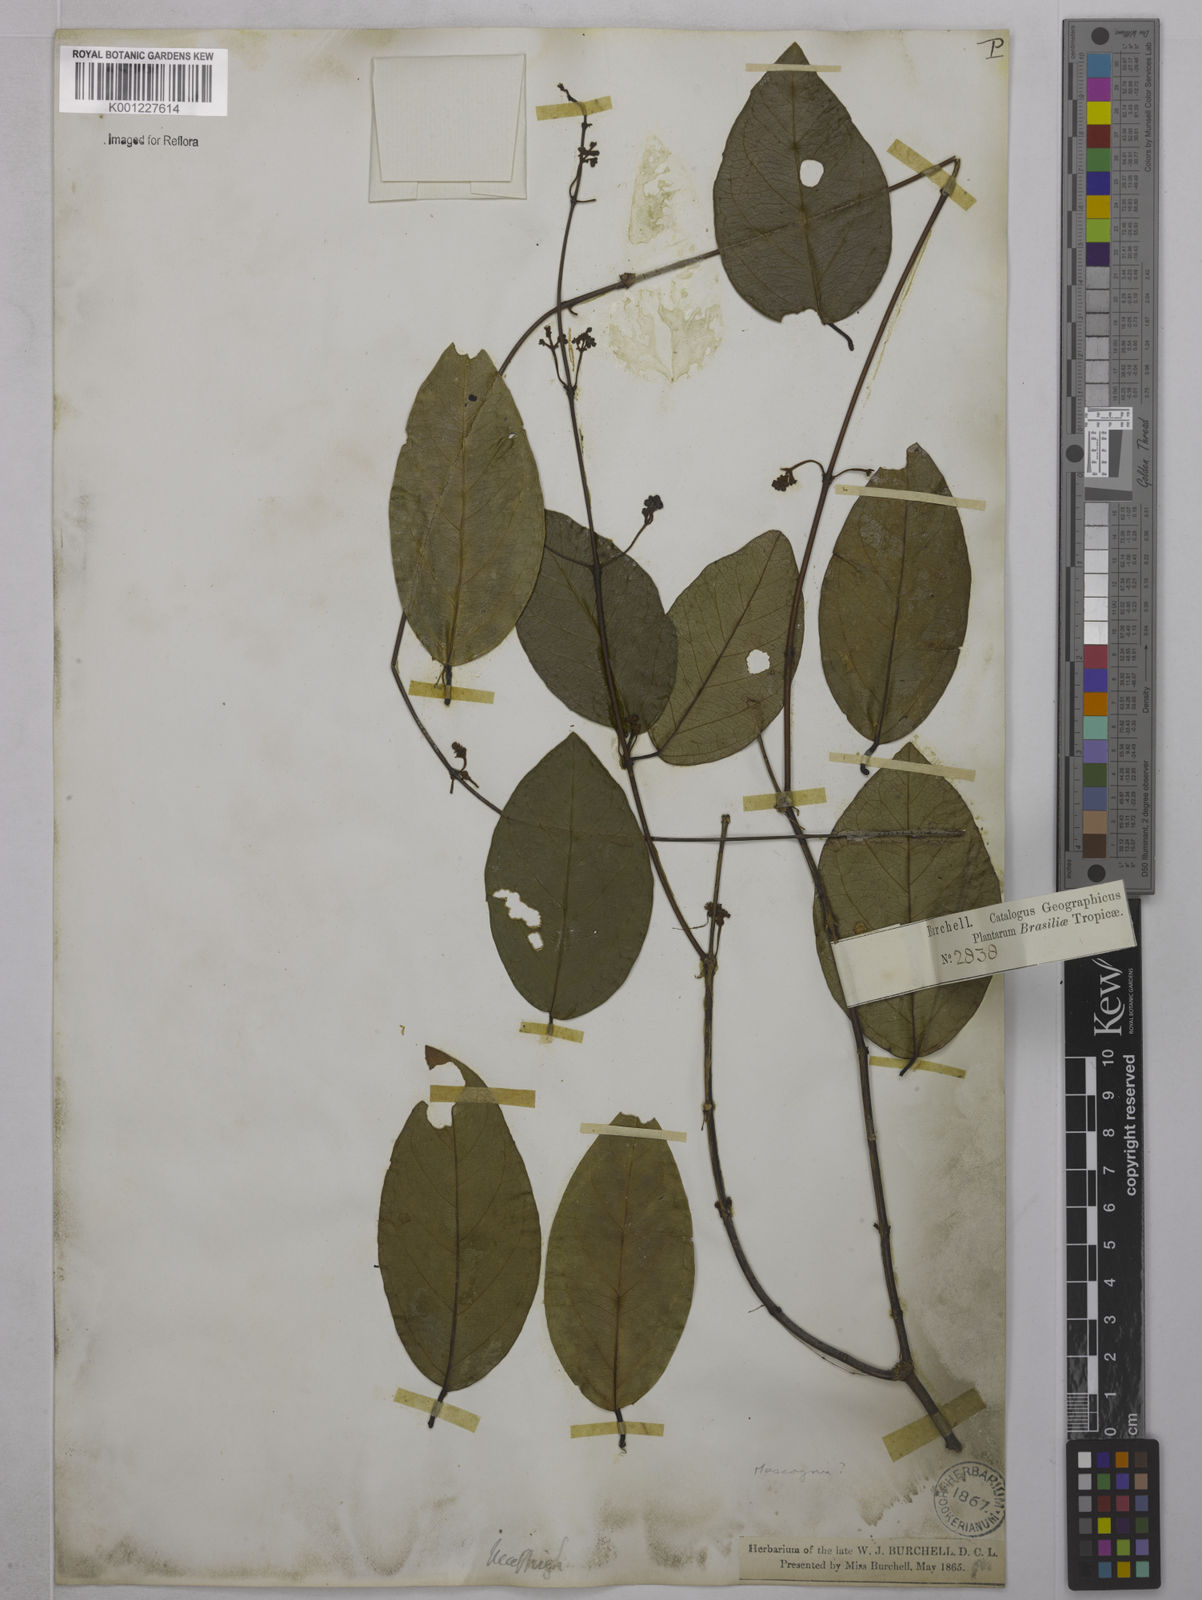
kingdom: Plantae
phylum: Tracheophyta
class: Magnoliopsida
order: Malpighiales
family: Malpighiaceae
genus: Mascagnia
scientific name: Mascagnia
